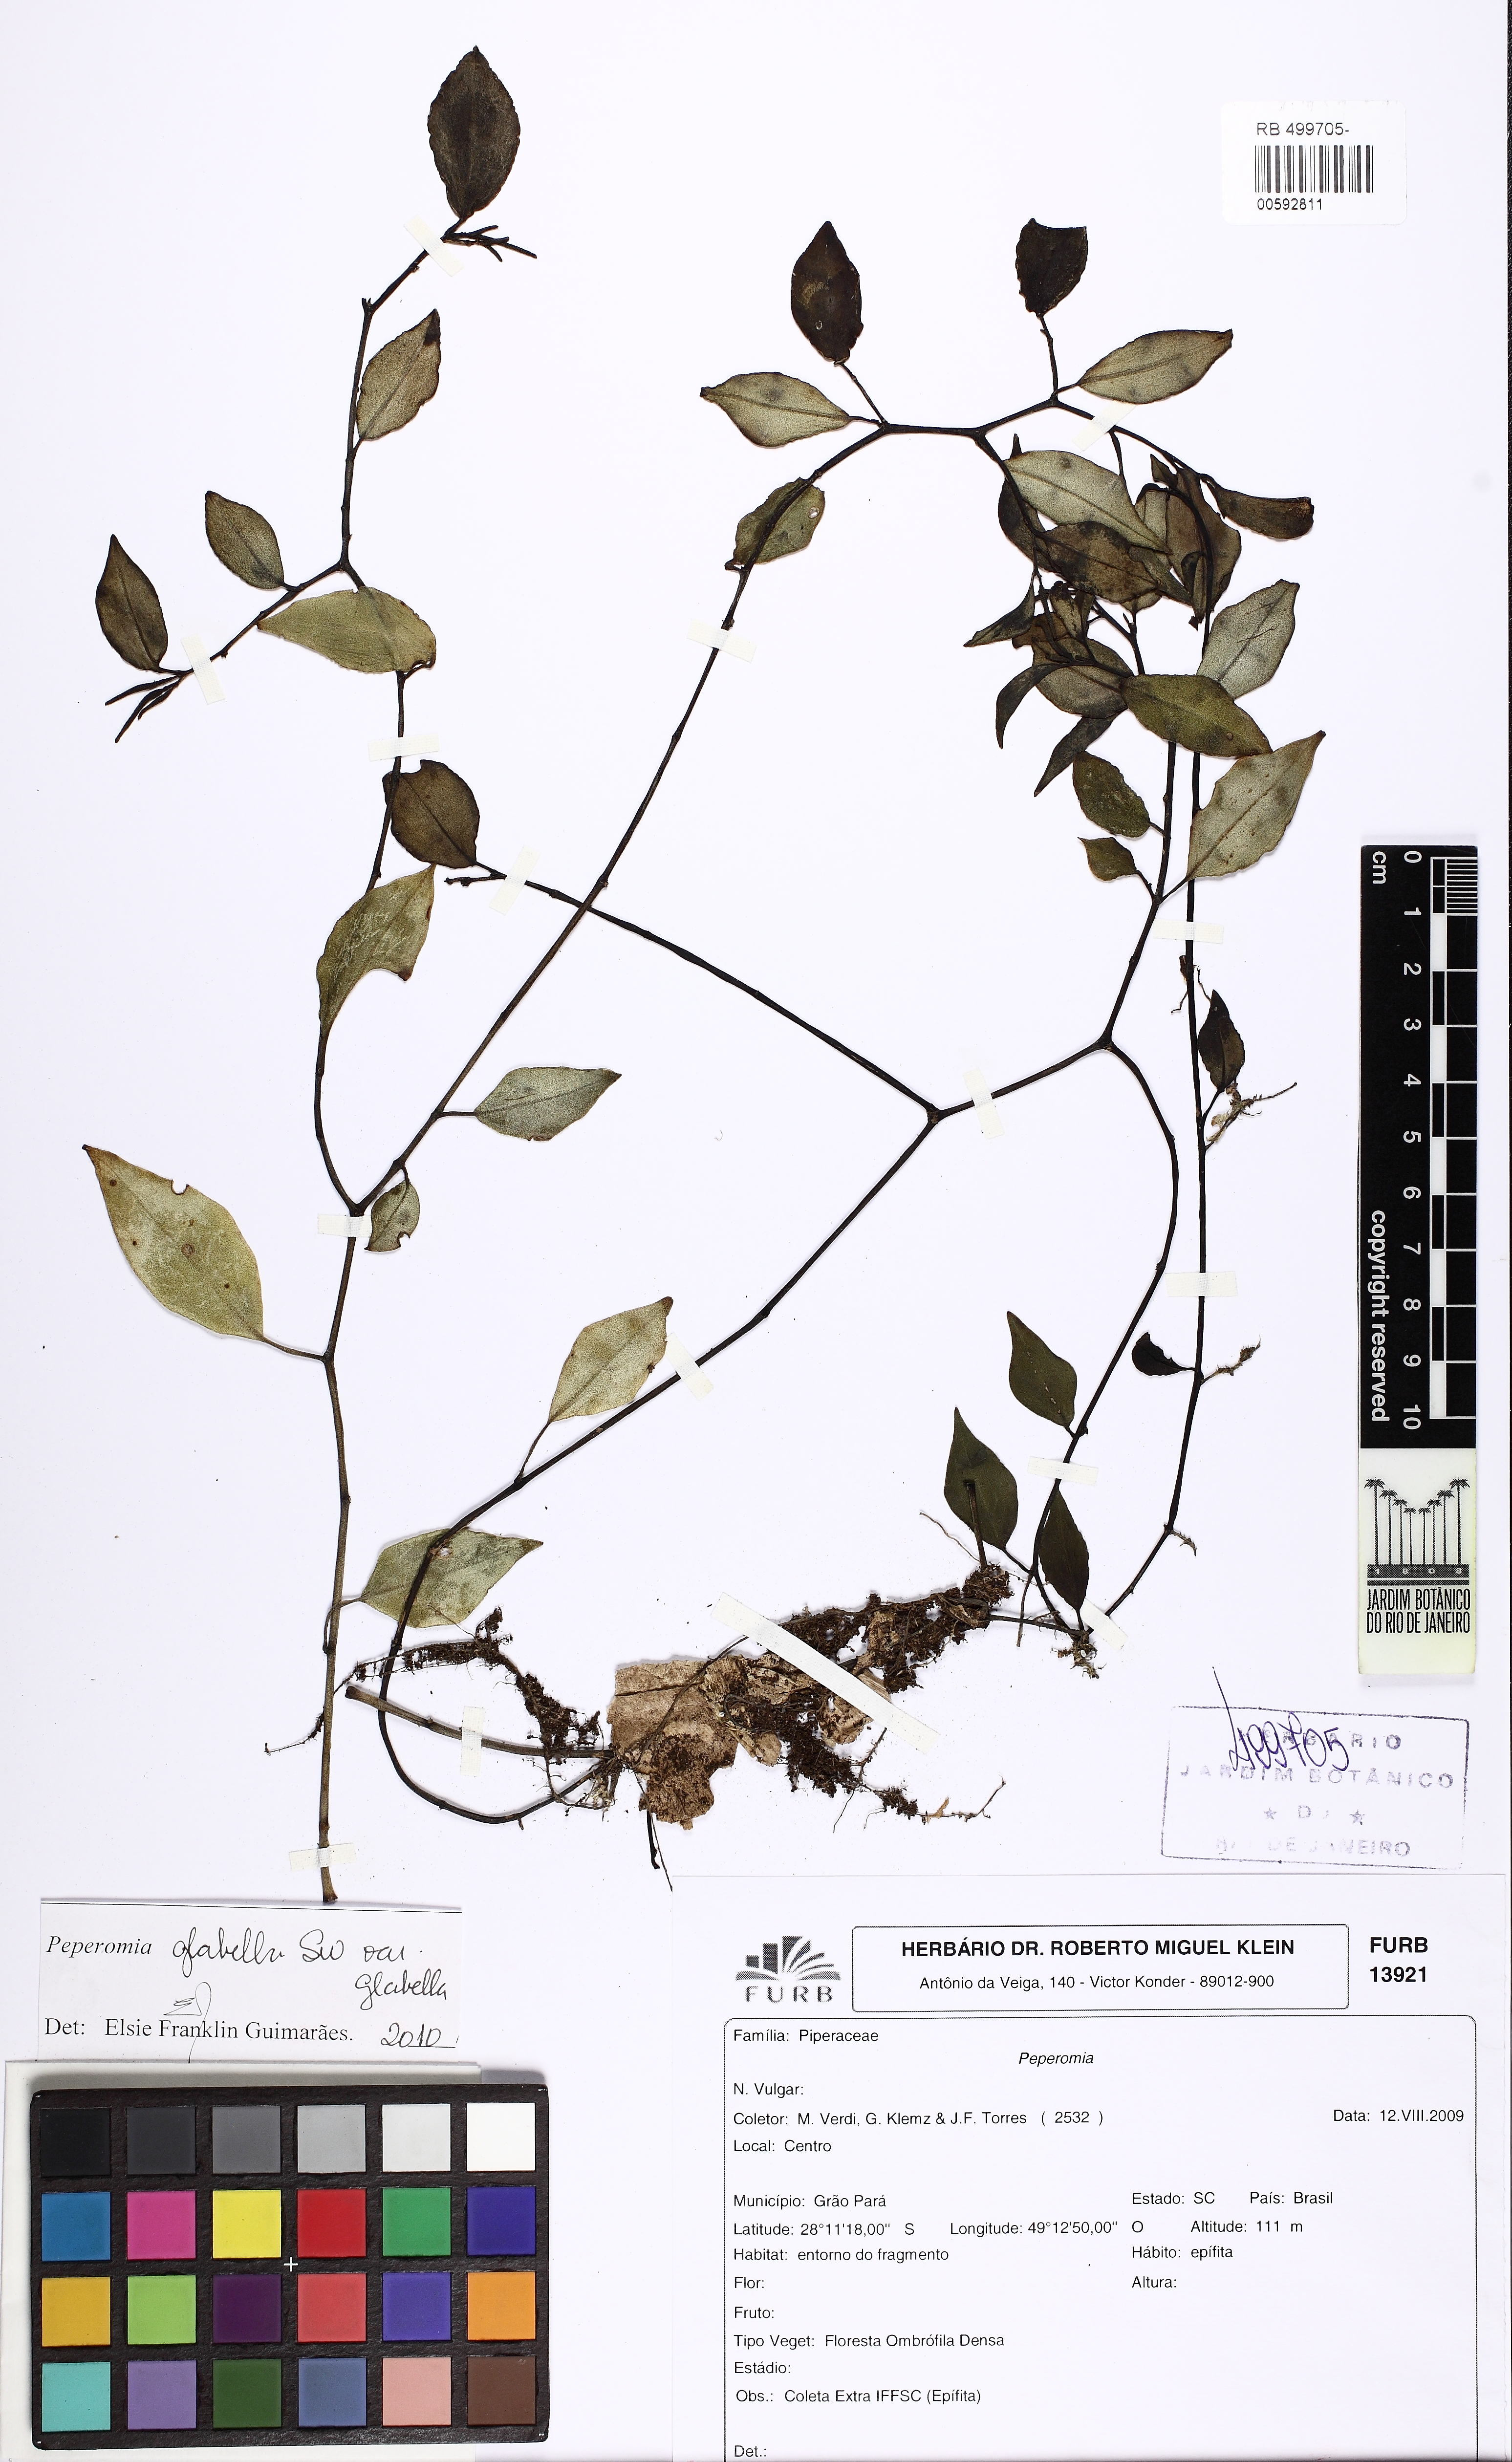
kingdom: Plantae
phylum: Tracheophyta
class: Magnoliopsida
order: Piperales
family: Piperaceae
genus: Peperomia
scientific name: Peperomia glabella
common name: Cypress peperomia
